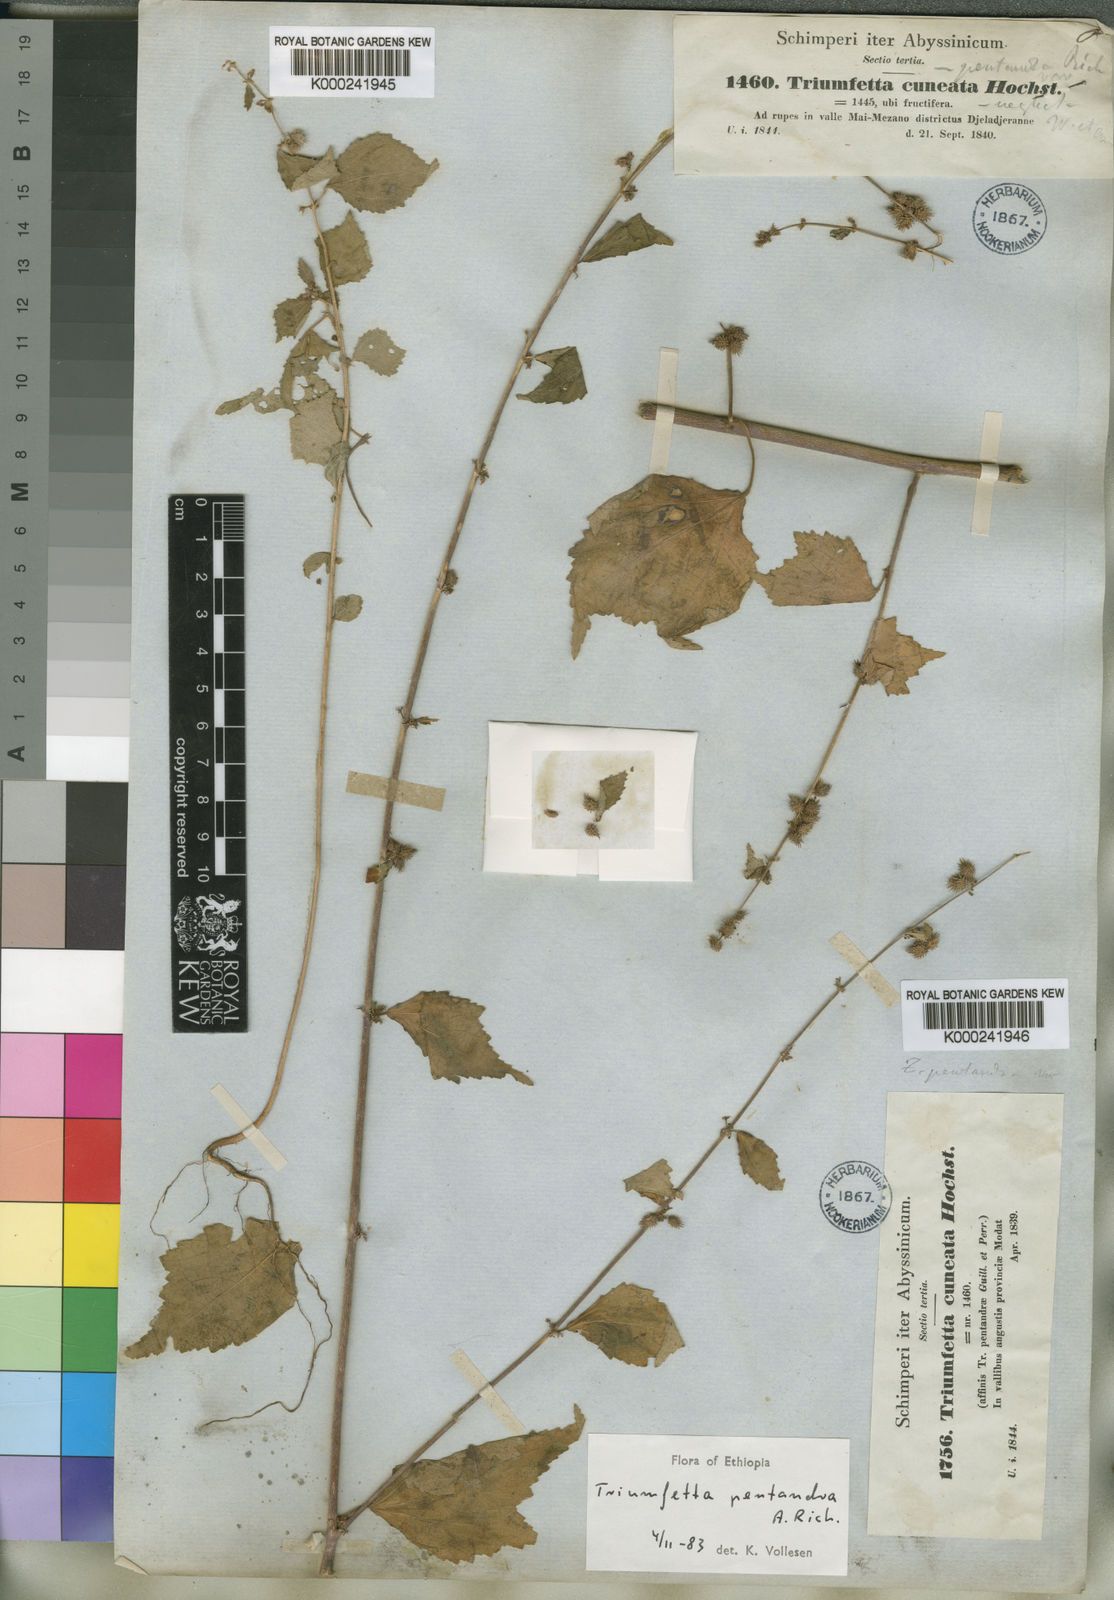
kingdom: Plantae
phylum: Tracheophyta
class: Magnoliopsida
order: Malvales
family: Malvaceae
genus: Triumfetta
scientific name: Triumfetta pentandra
